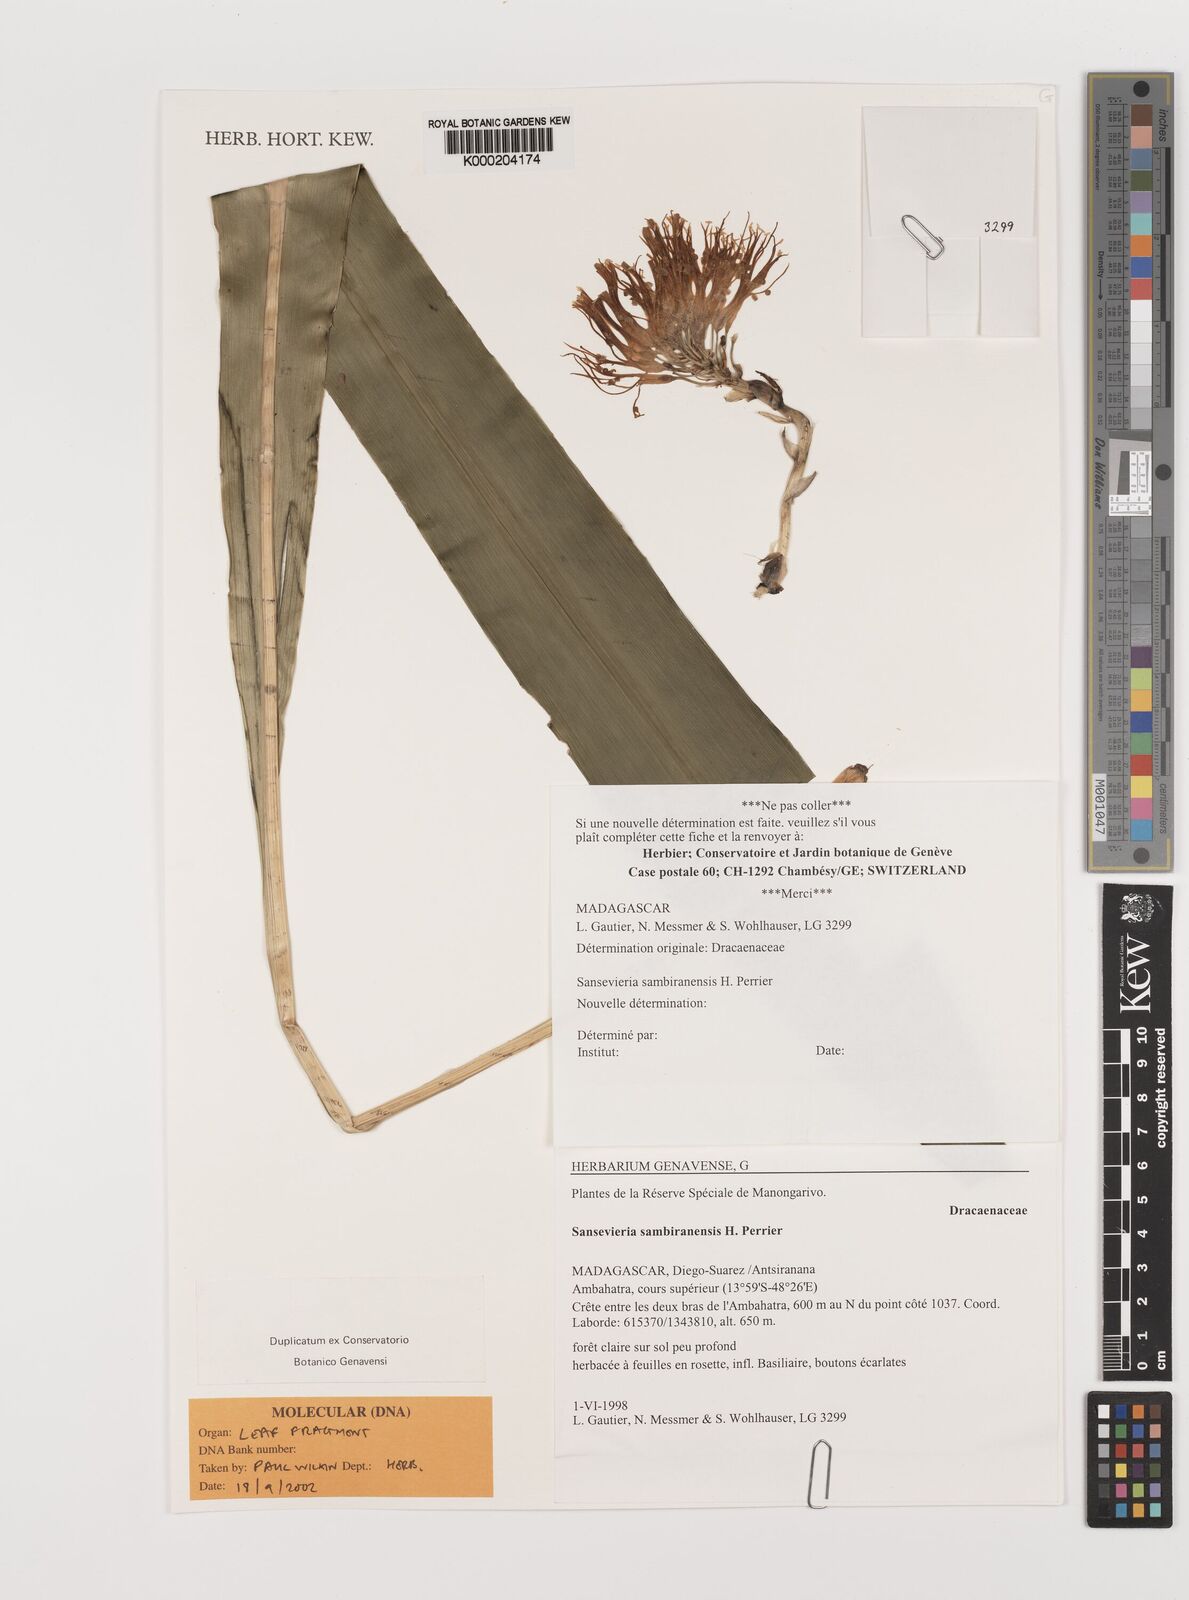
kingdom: Plantae
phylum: Tracheophyta
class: Liliopsida
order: Asparagales
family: Asparagaceae
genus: Dracaena
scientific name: Dracaena sambiranensis
